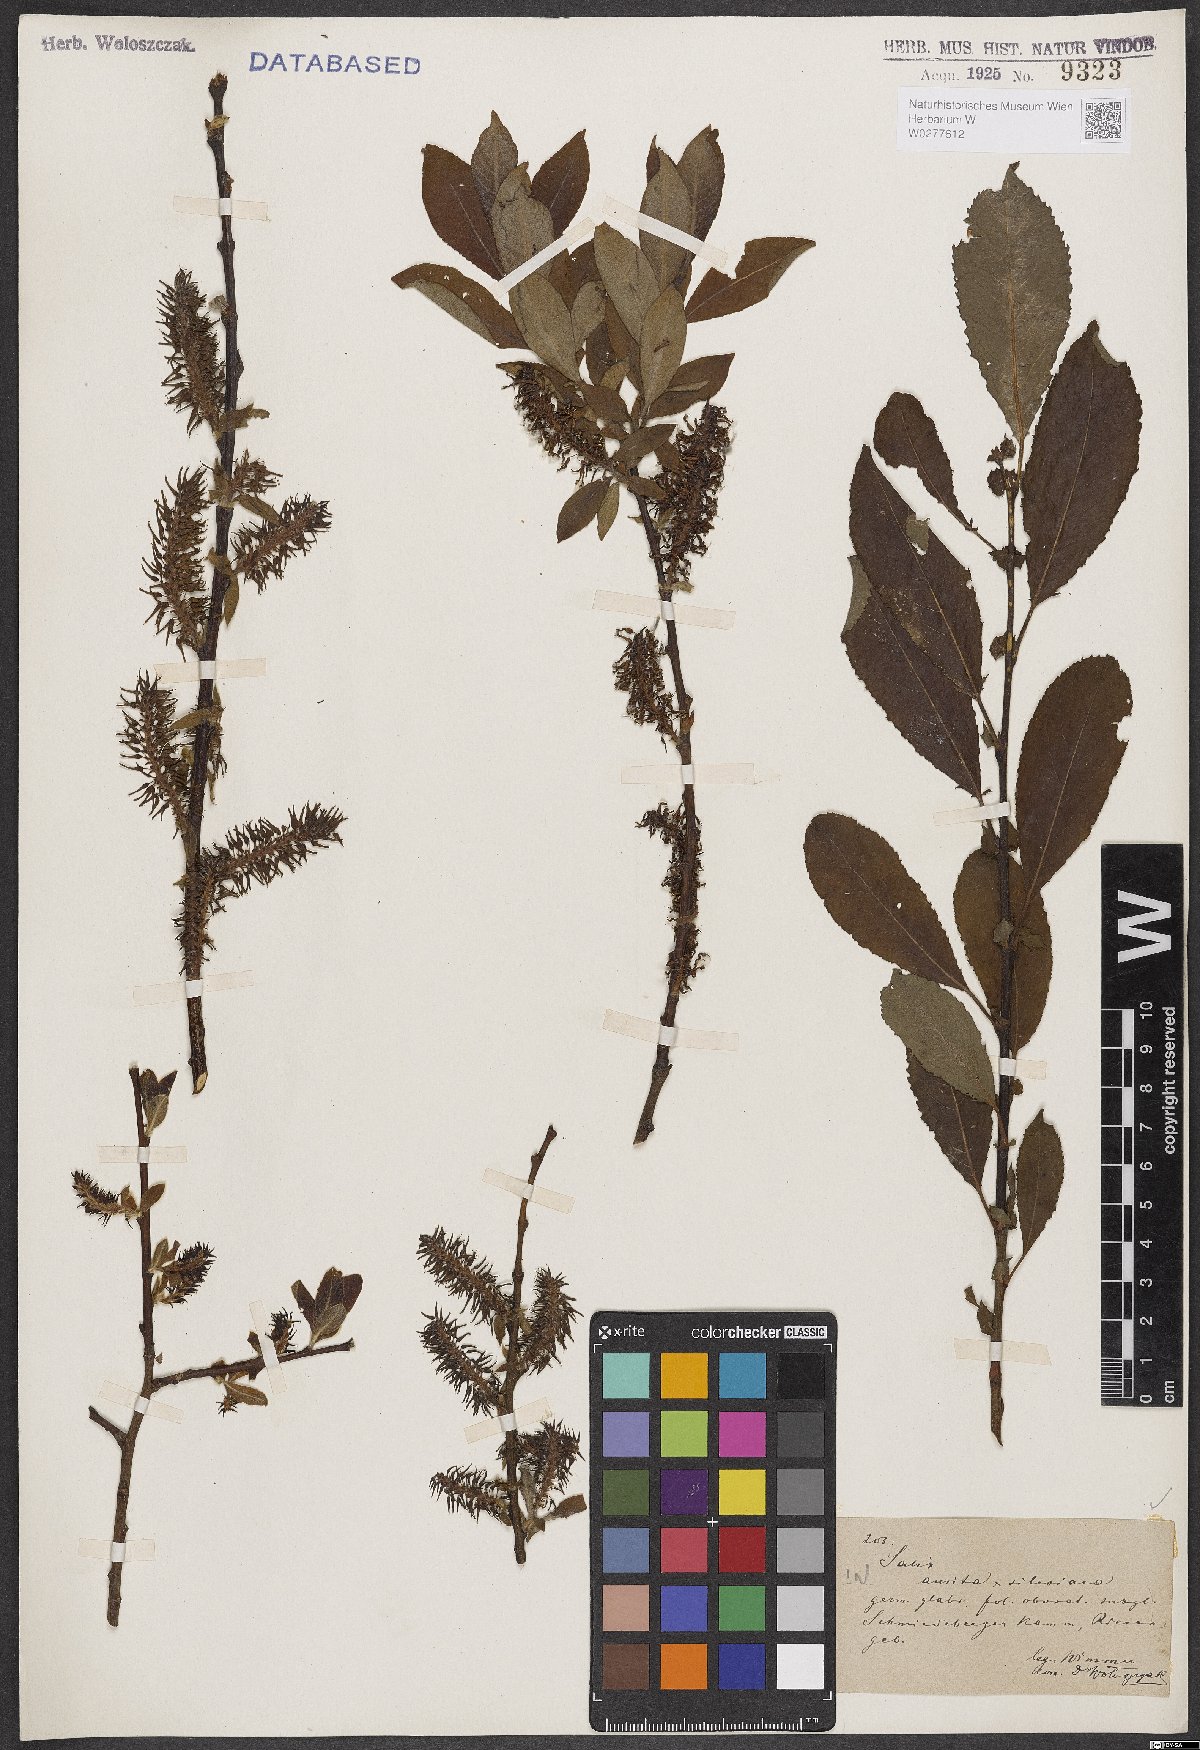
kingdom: Plantae
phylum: Tracheophyta
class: Magnoliopsida
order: Malpighiales
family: Salicaceae
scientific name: Salicaceae
